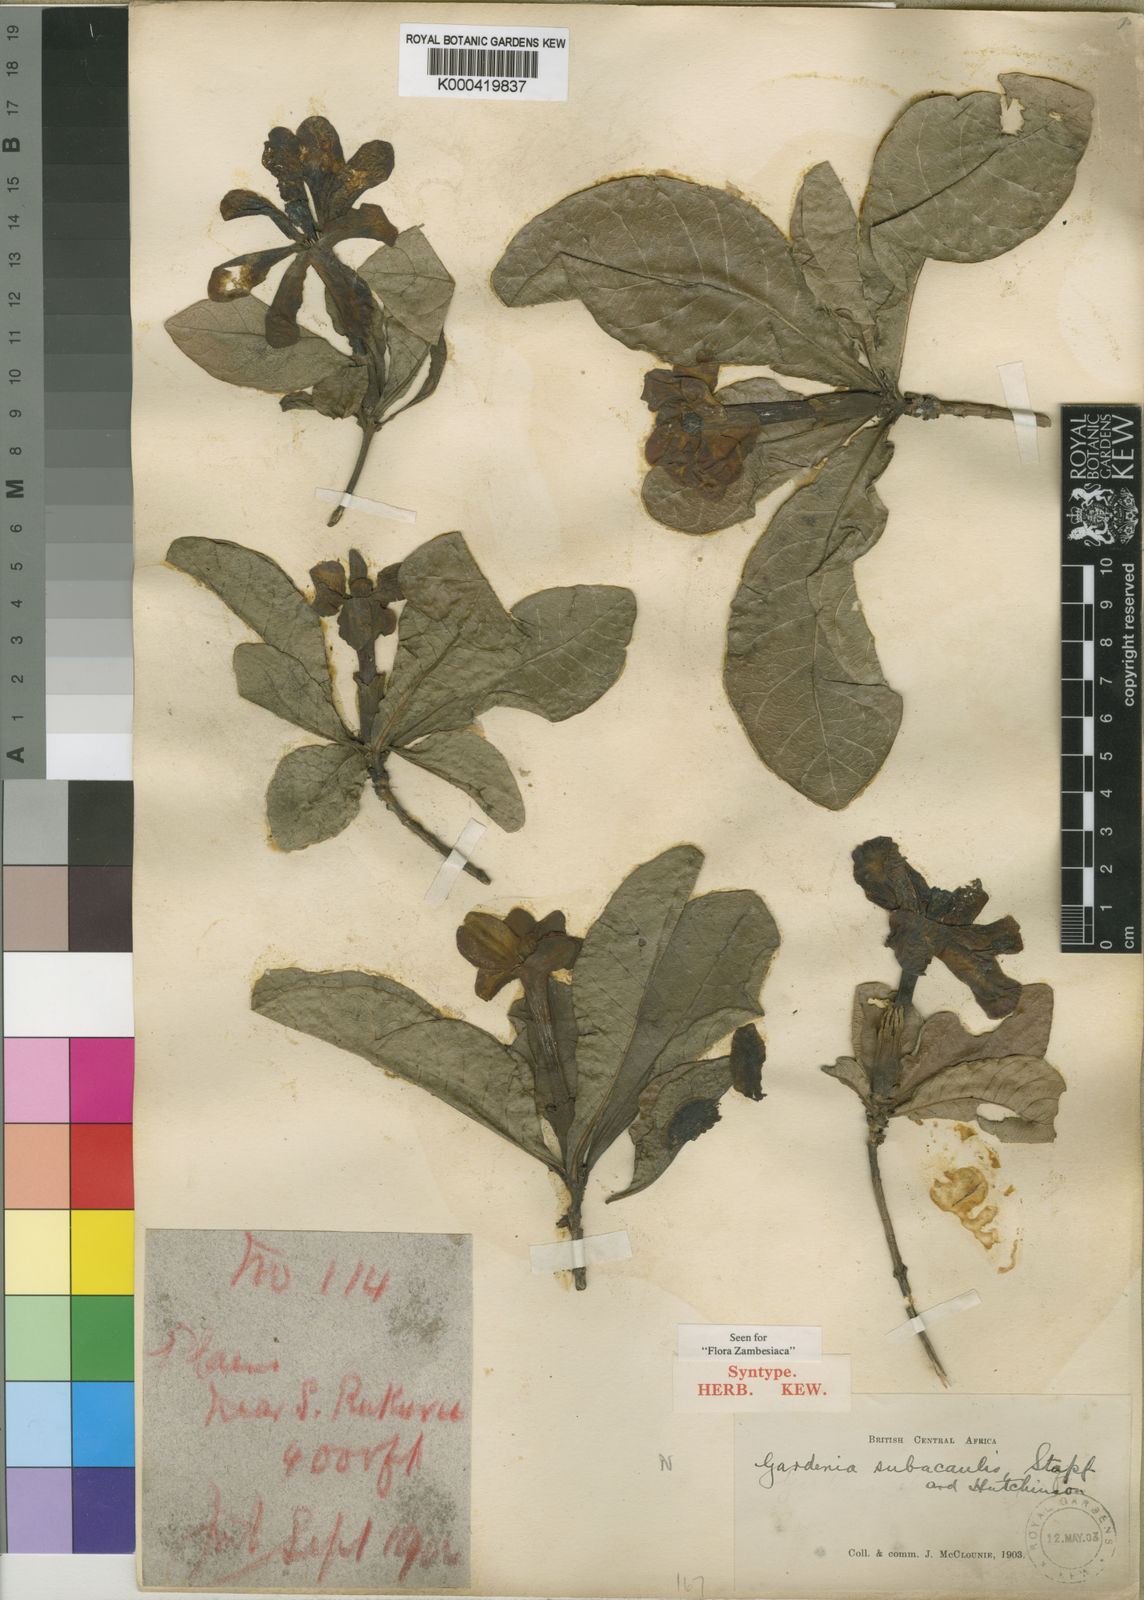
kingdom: Plantae
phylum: Tracheophyta
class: Magnoliopsida
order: Gentianales
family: Rubiaceae
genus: Gardenia
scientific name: Gardenia subacaulis
